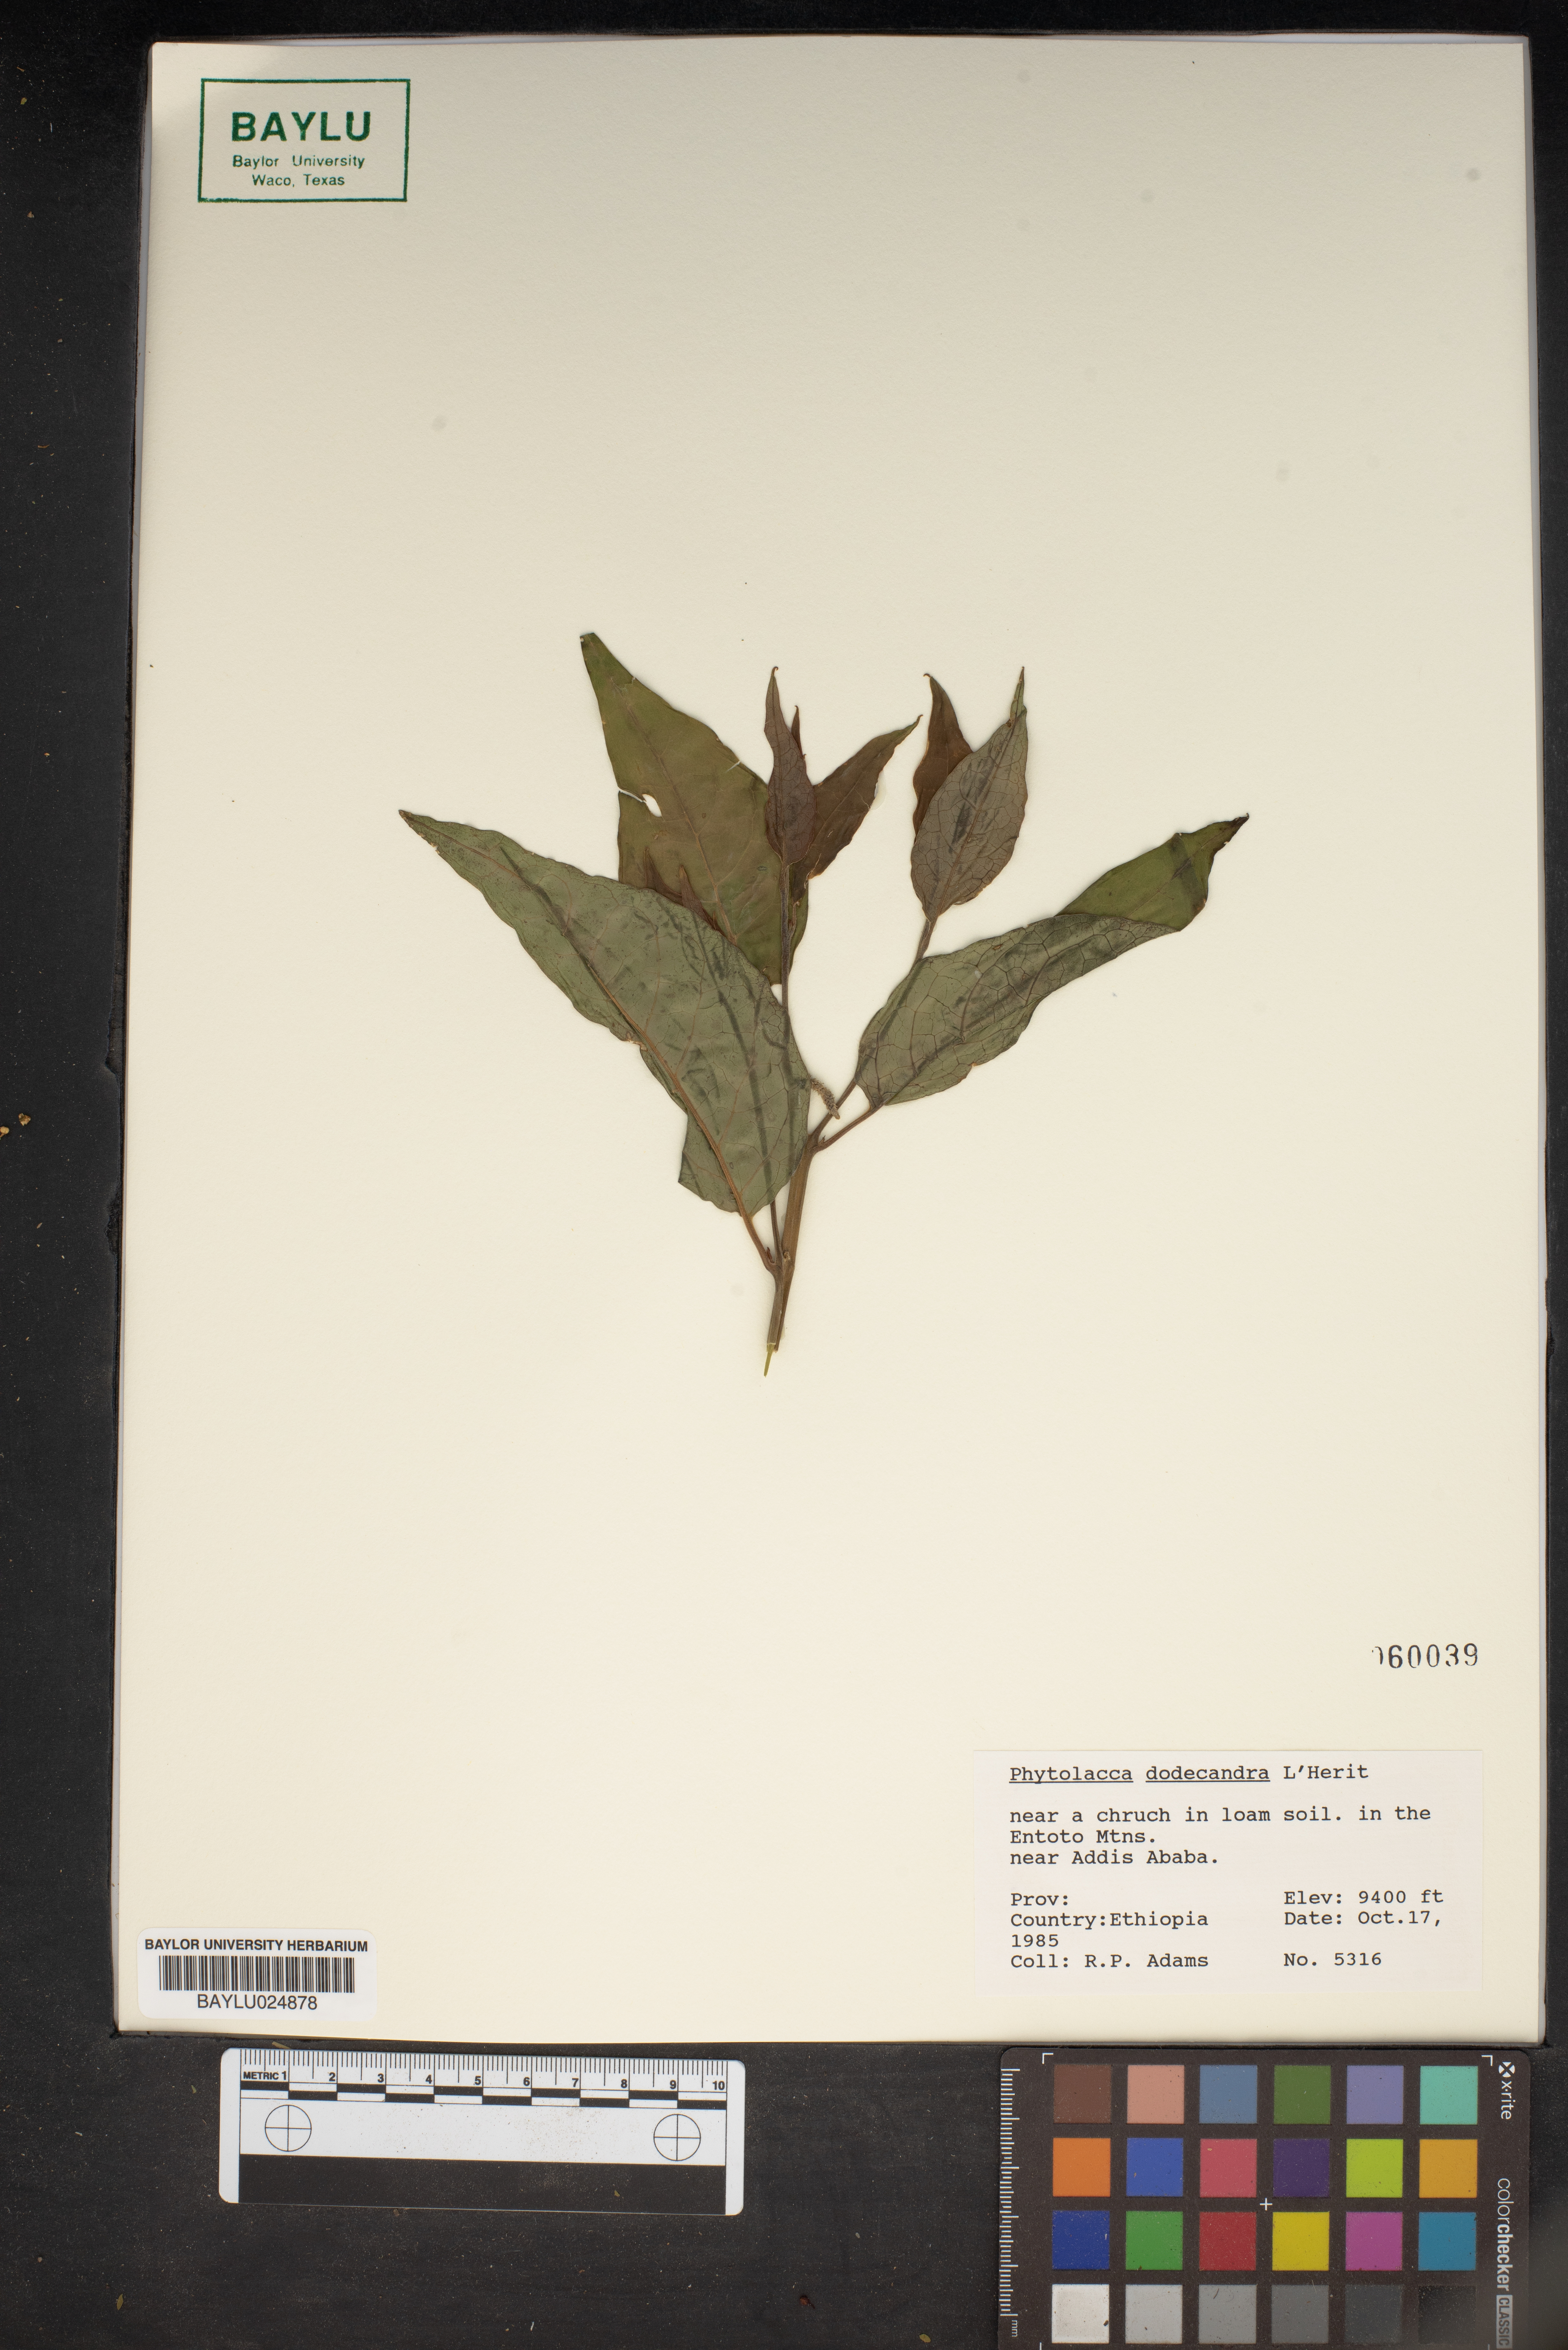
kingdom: Plantae
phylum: Tracheophyta
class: Magnoliopsida
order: Caryophyllales
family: Phytolaccaceae
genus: Phytolacca
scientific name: Phytolacca dodecandra
